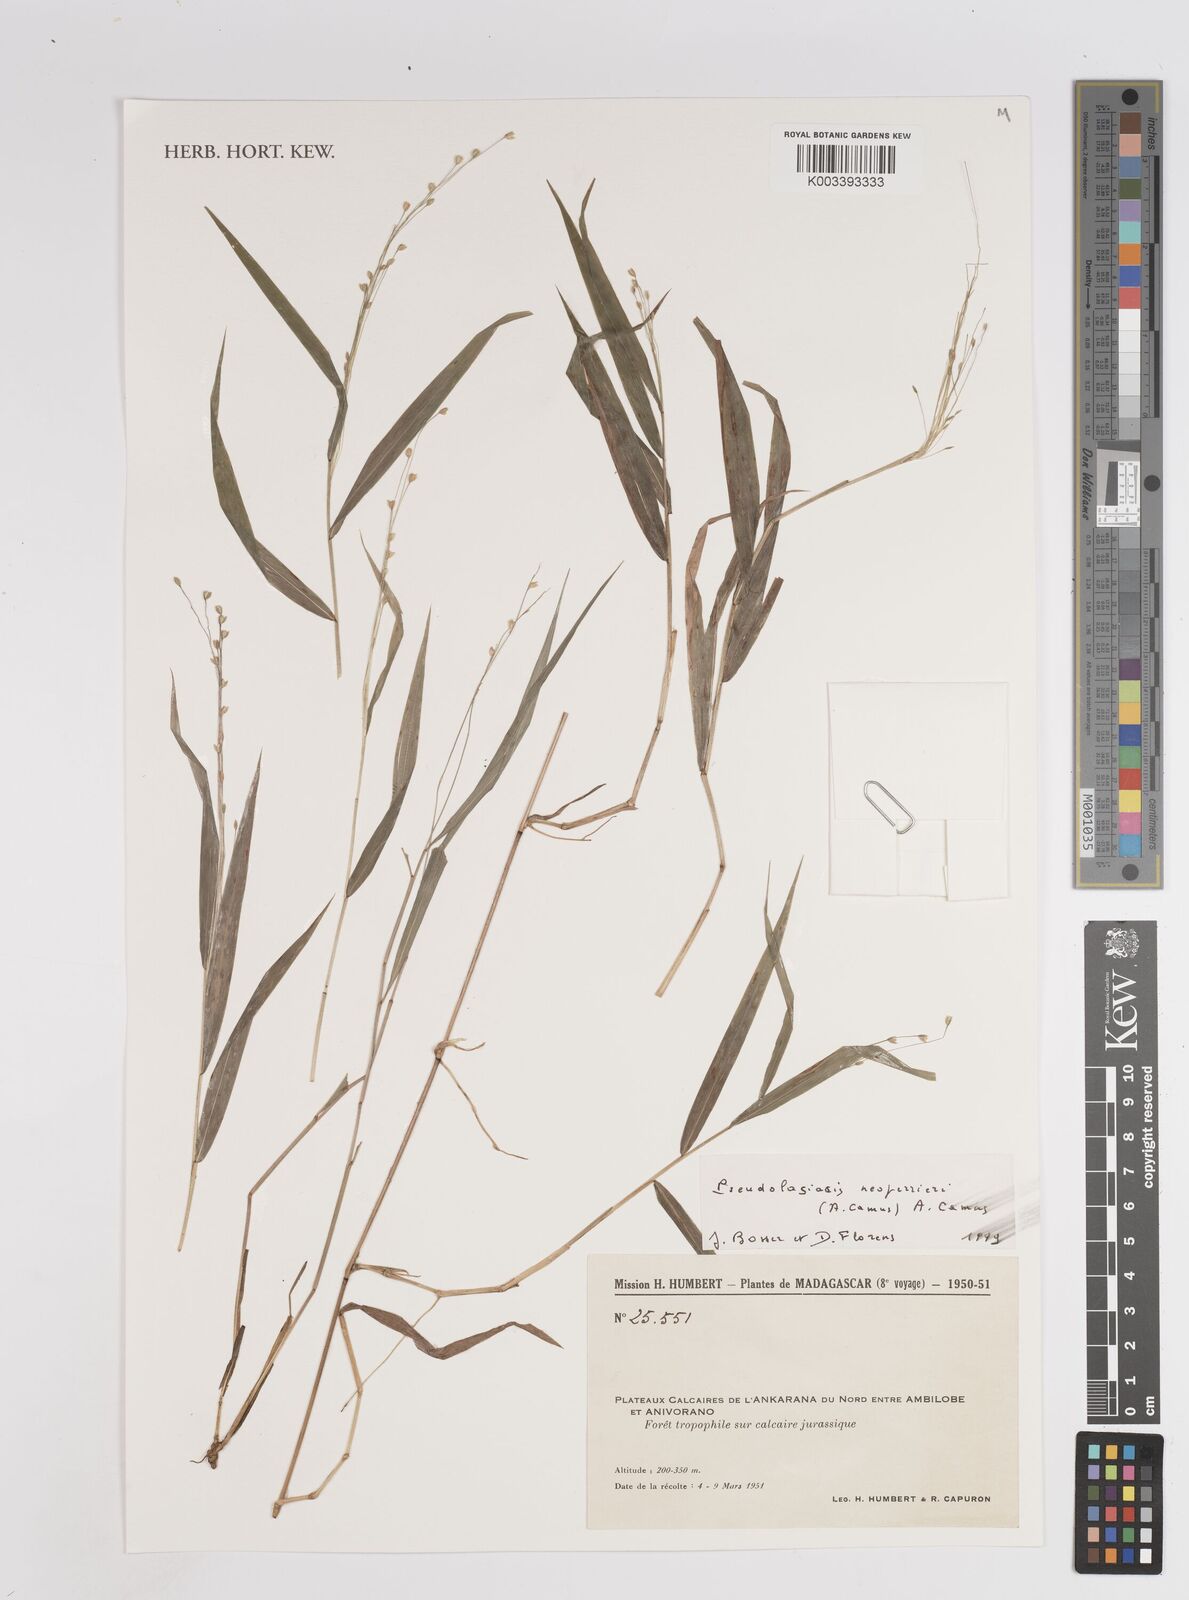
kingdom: Plantae
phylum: Tracheophyta
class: Liliopsida
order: Poales
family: Poaceae
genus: Pseudolasiacis
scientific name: Pseudolasiacis neoperrieri
